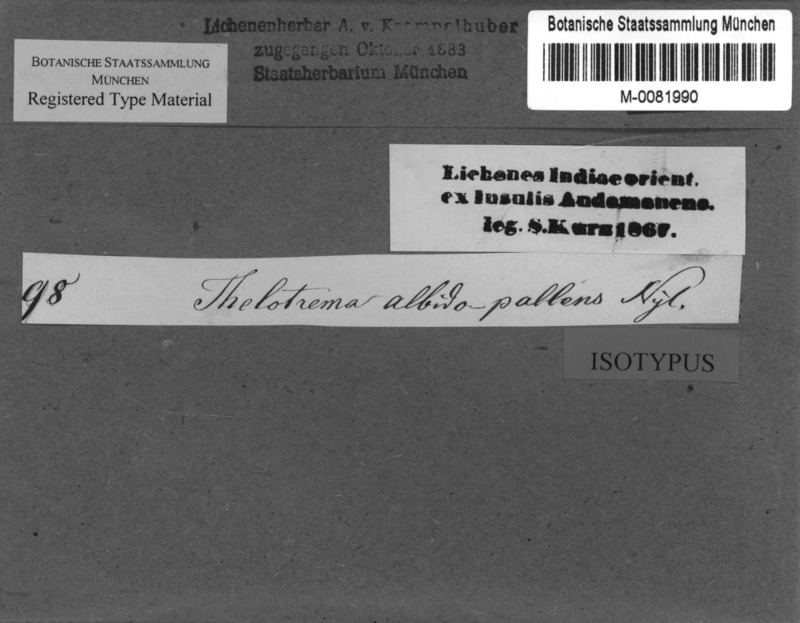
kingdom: Fungi
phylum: Ascomycota
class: Lecanoromycetes
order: Ostropales
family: Graphidaceae
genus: Thelotrema
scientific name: Thelotrema albidopallens
